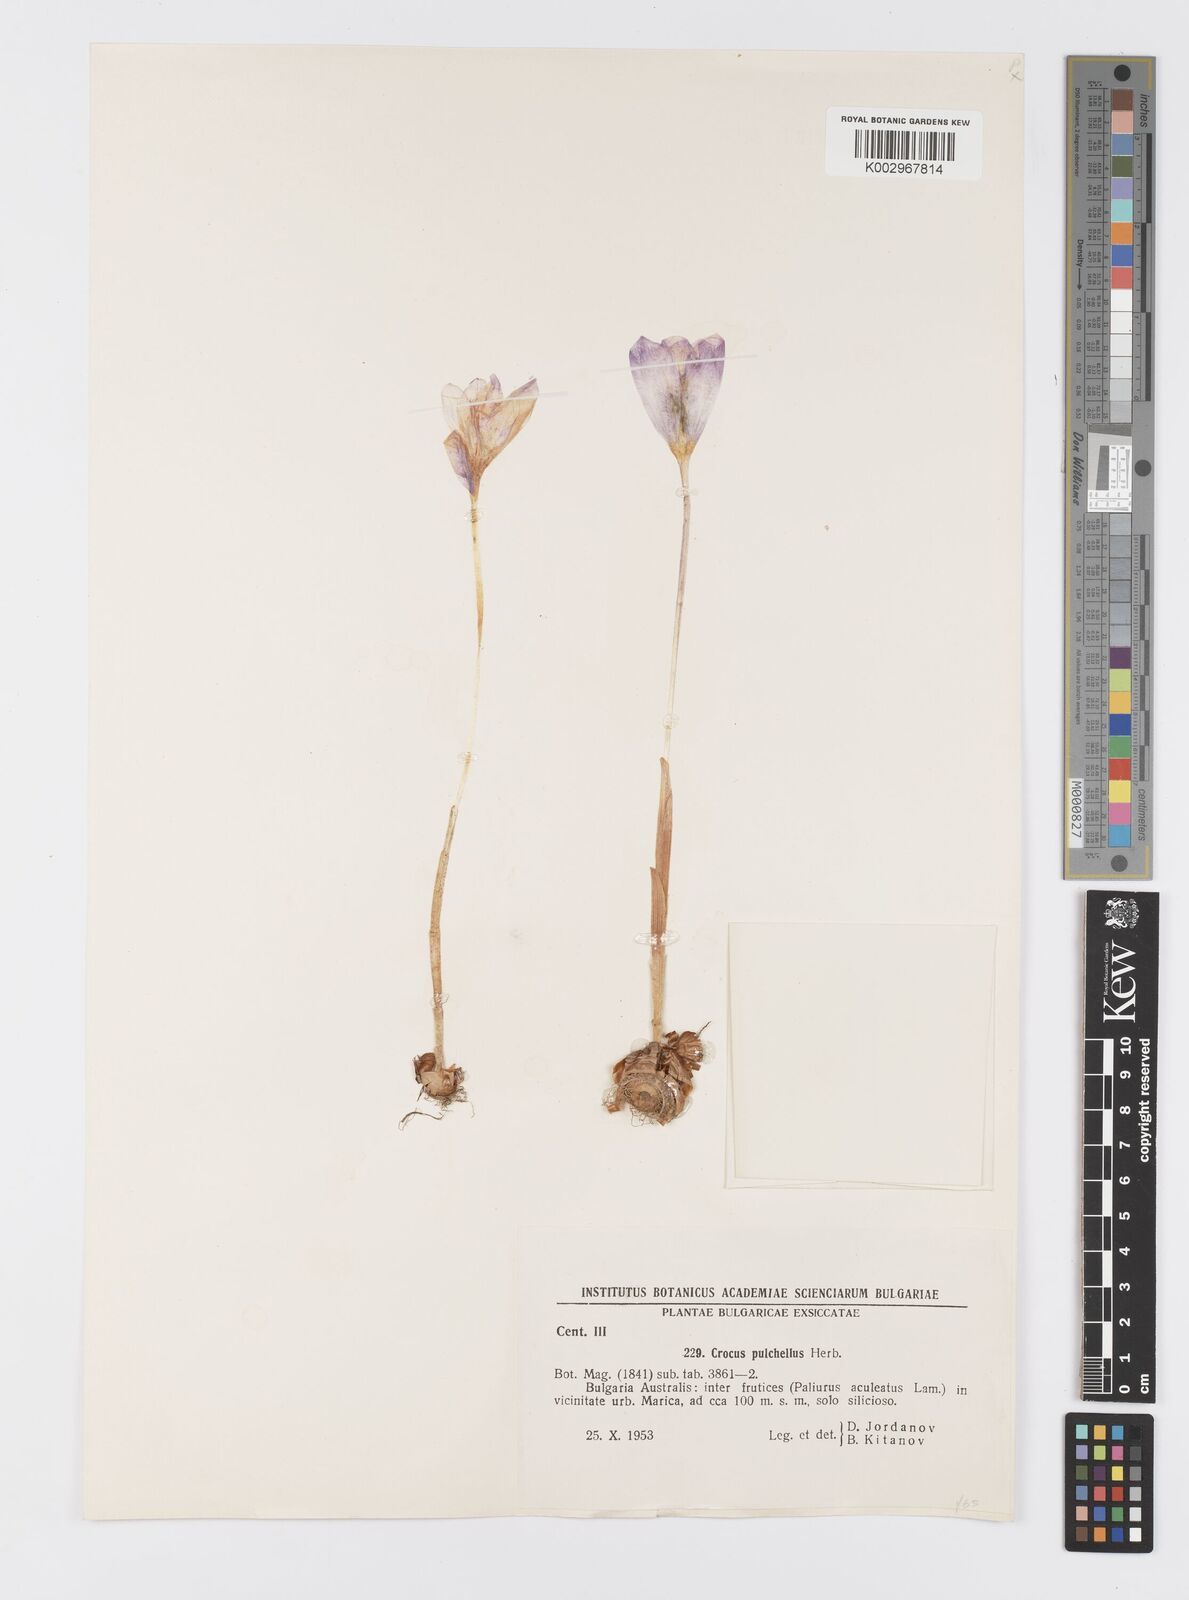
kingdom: Plantae
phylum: Tracheophyta
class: Liliopsida
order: Asparagales
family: Iridaceae
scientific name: Iridaceae
